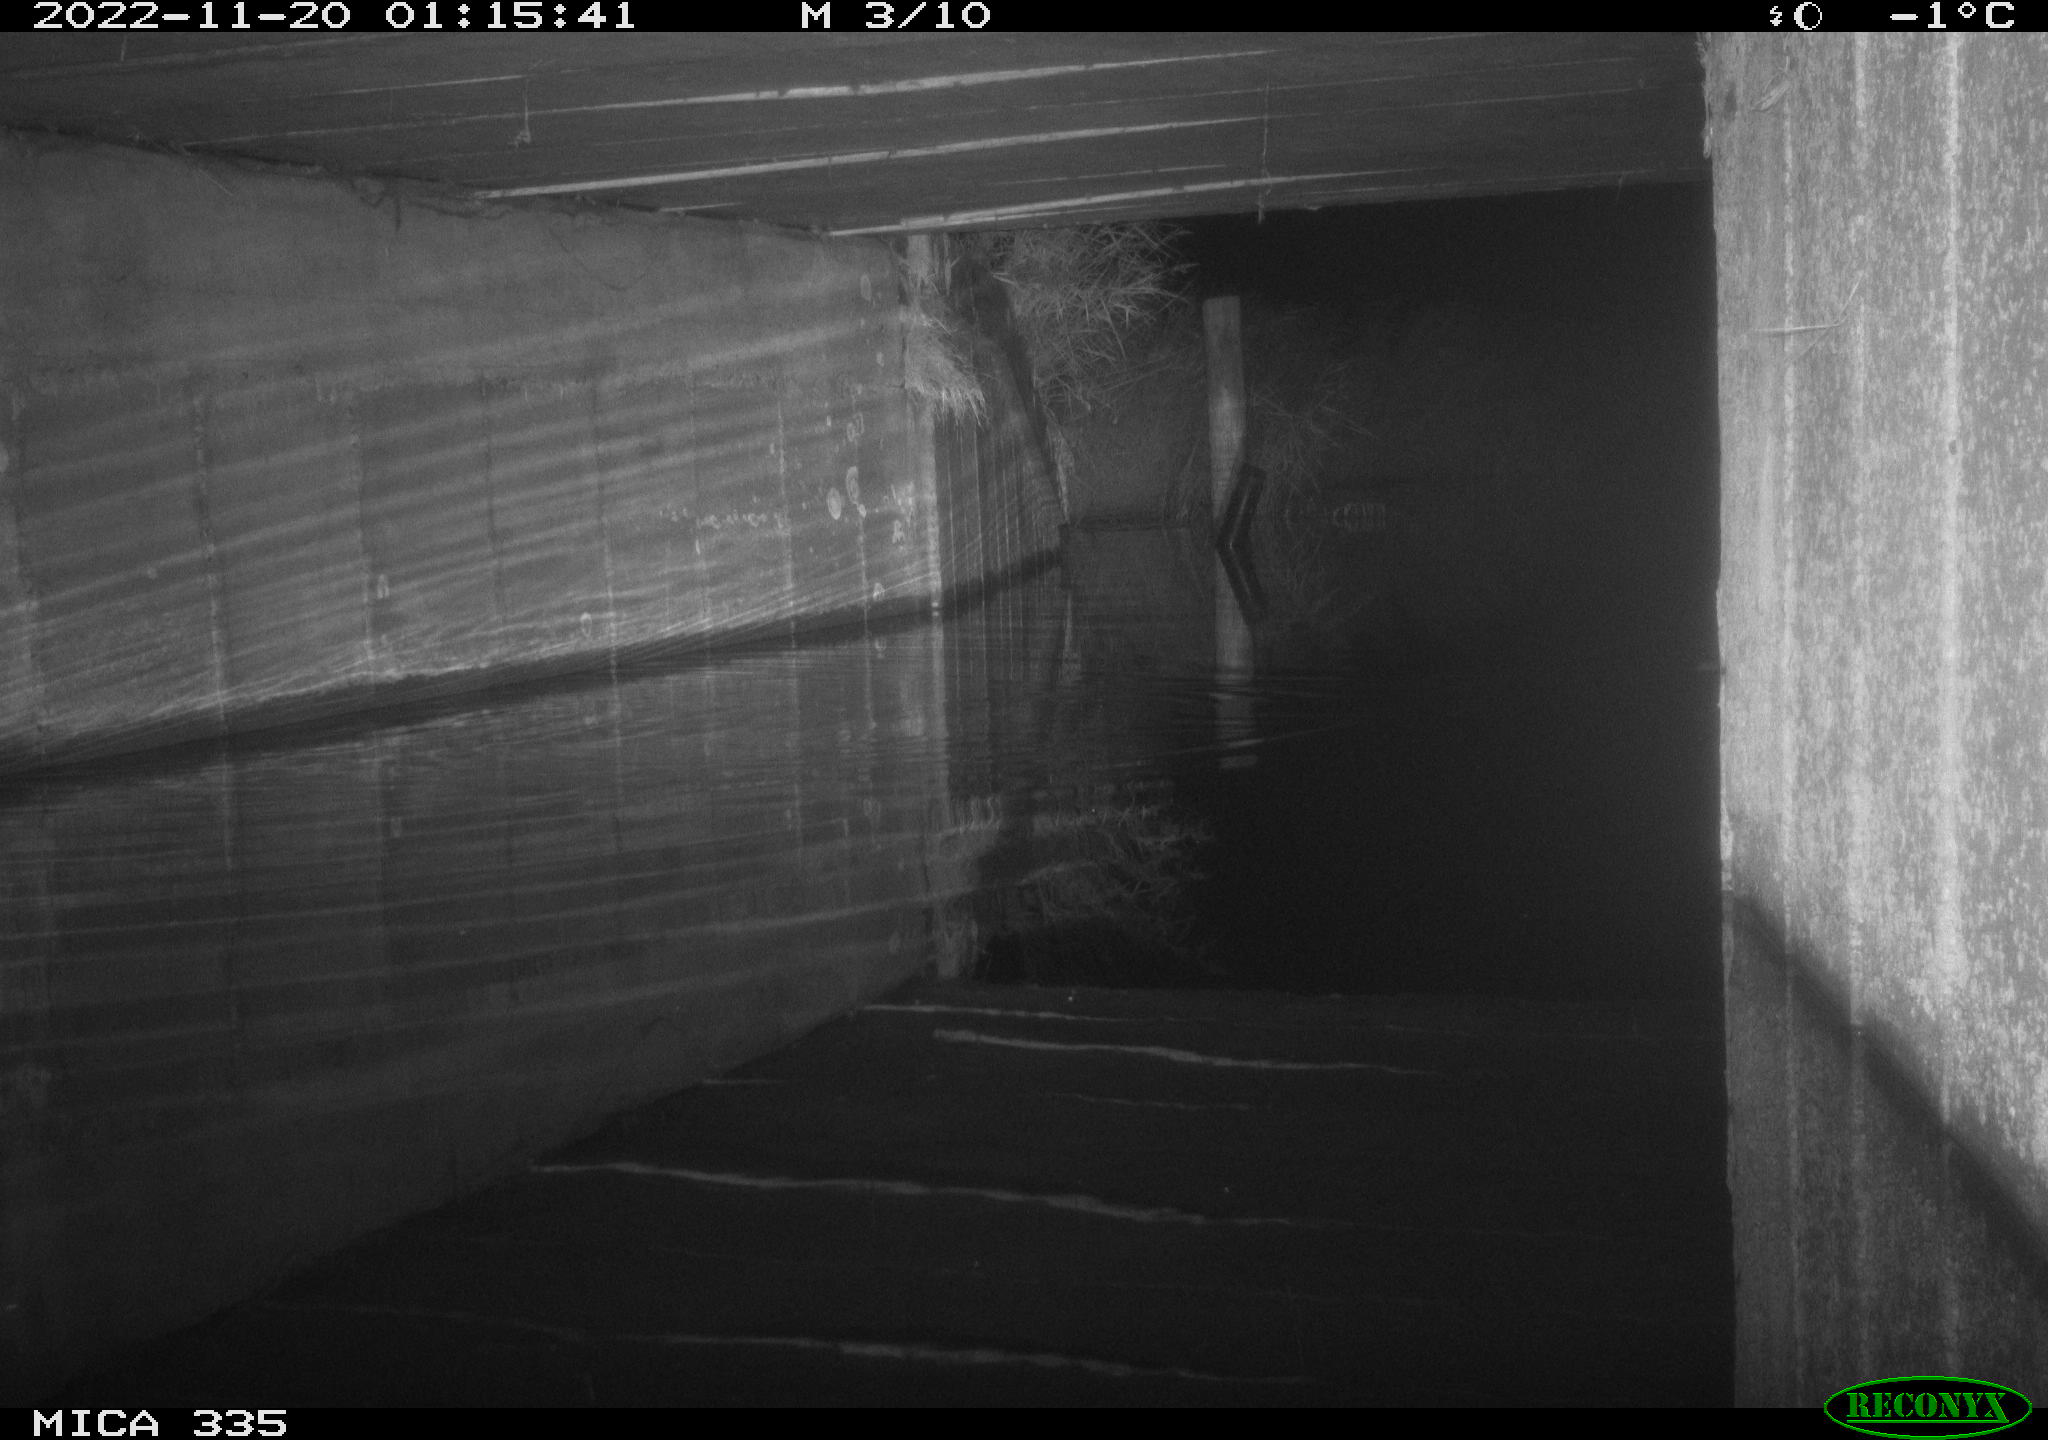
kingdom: Animalia
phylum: Chordata
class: Mammalia
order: Rodentia
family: Muridae
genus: Rattus
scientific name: Rattus norvegicus
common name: Brown rat
